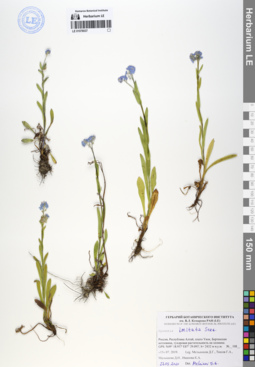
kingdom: Plantae
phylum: Tracheophyta
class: Magnoliopsida
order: Boraginales
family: Boraginaceae
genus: Myosotis
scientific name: Myosotis imitata
